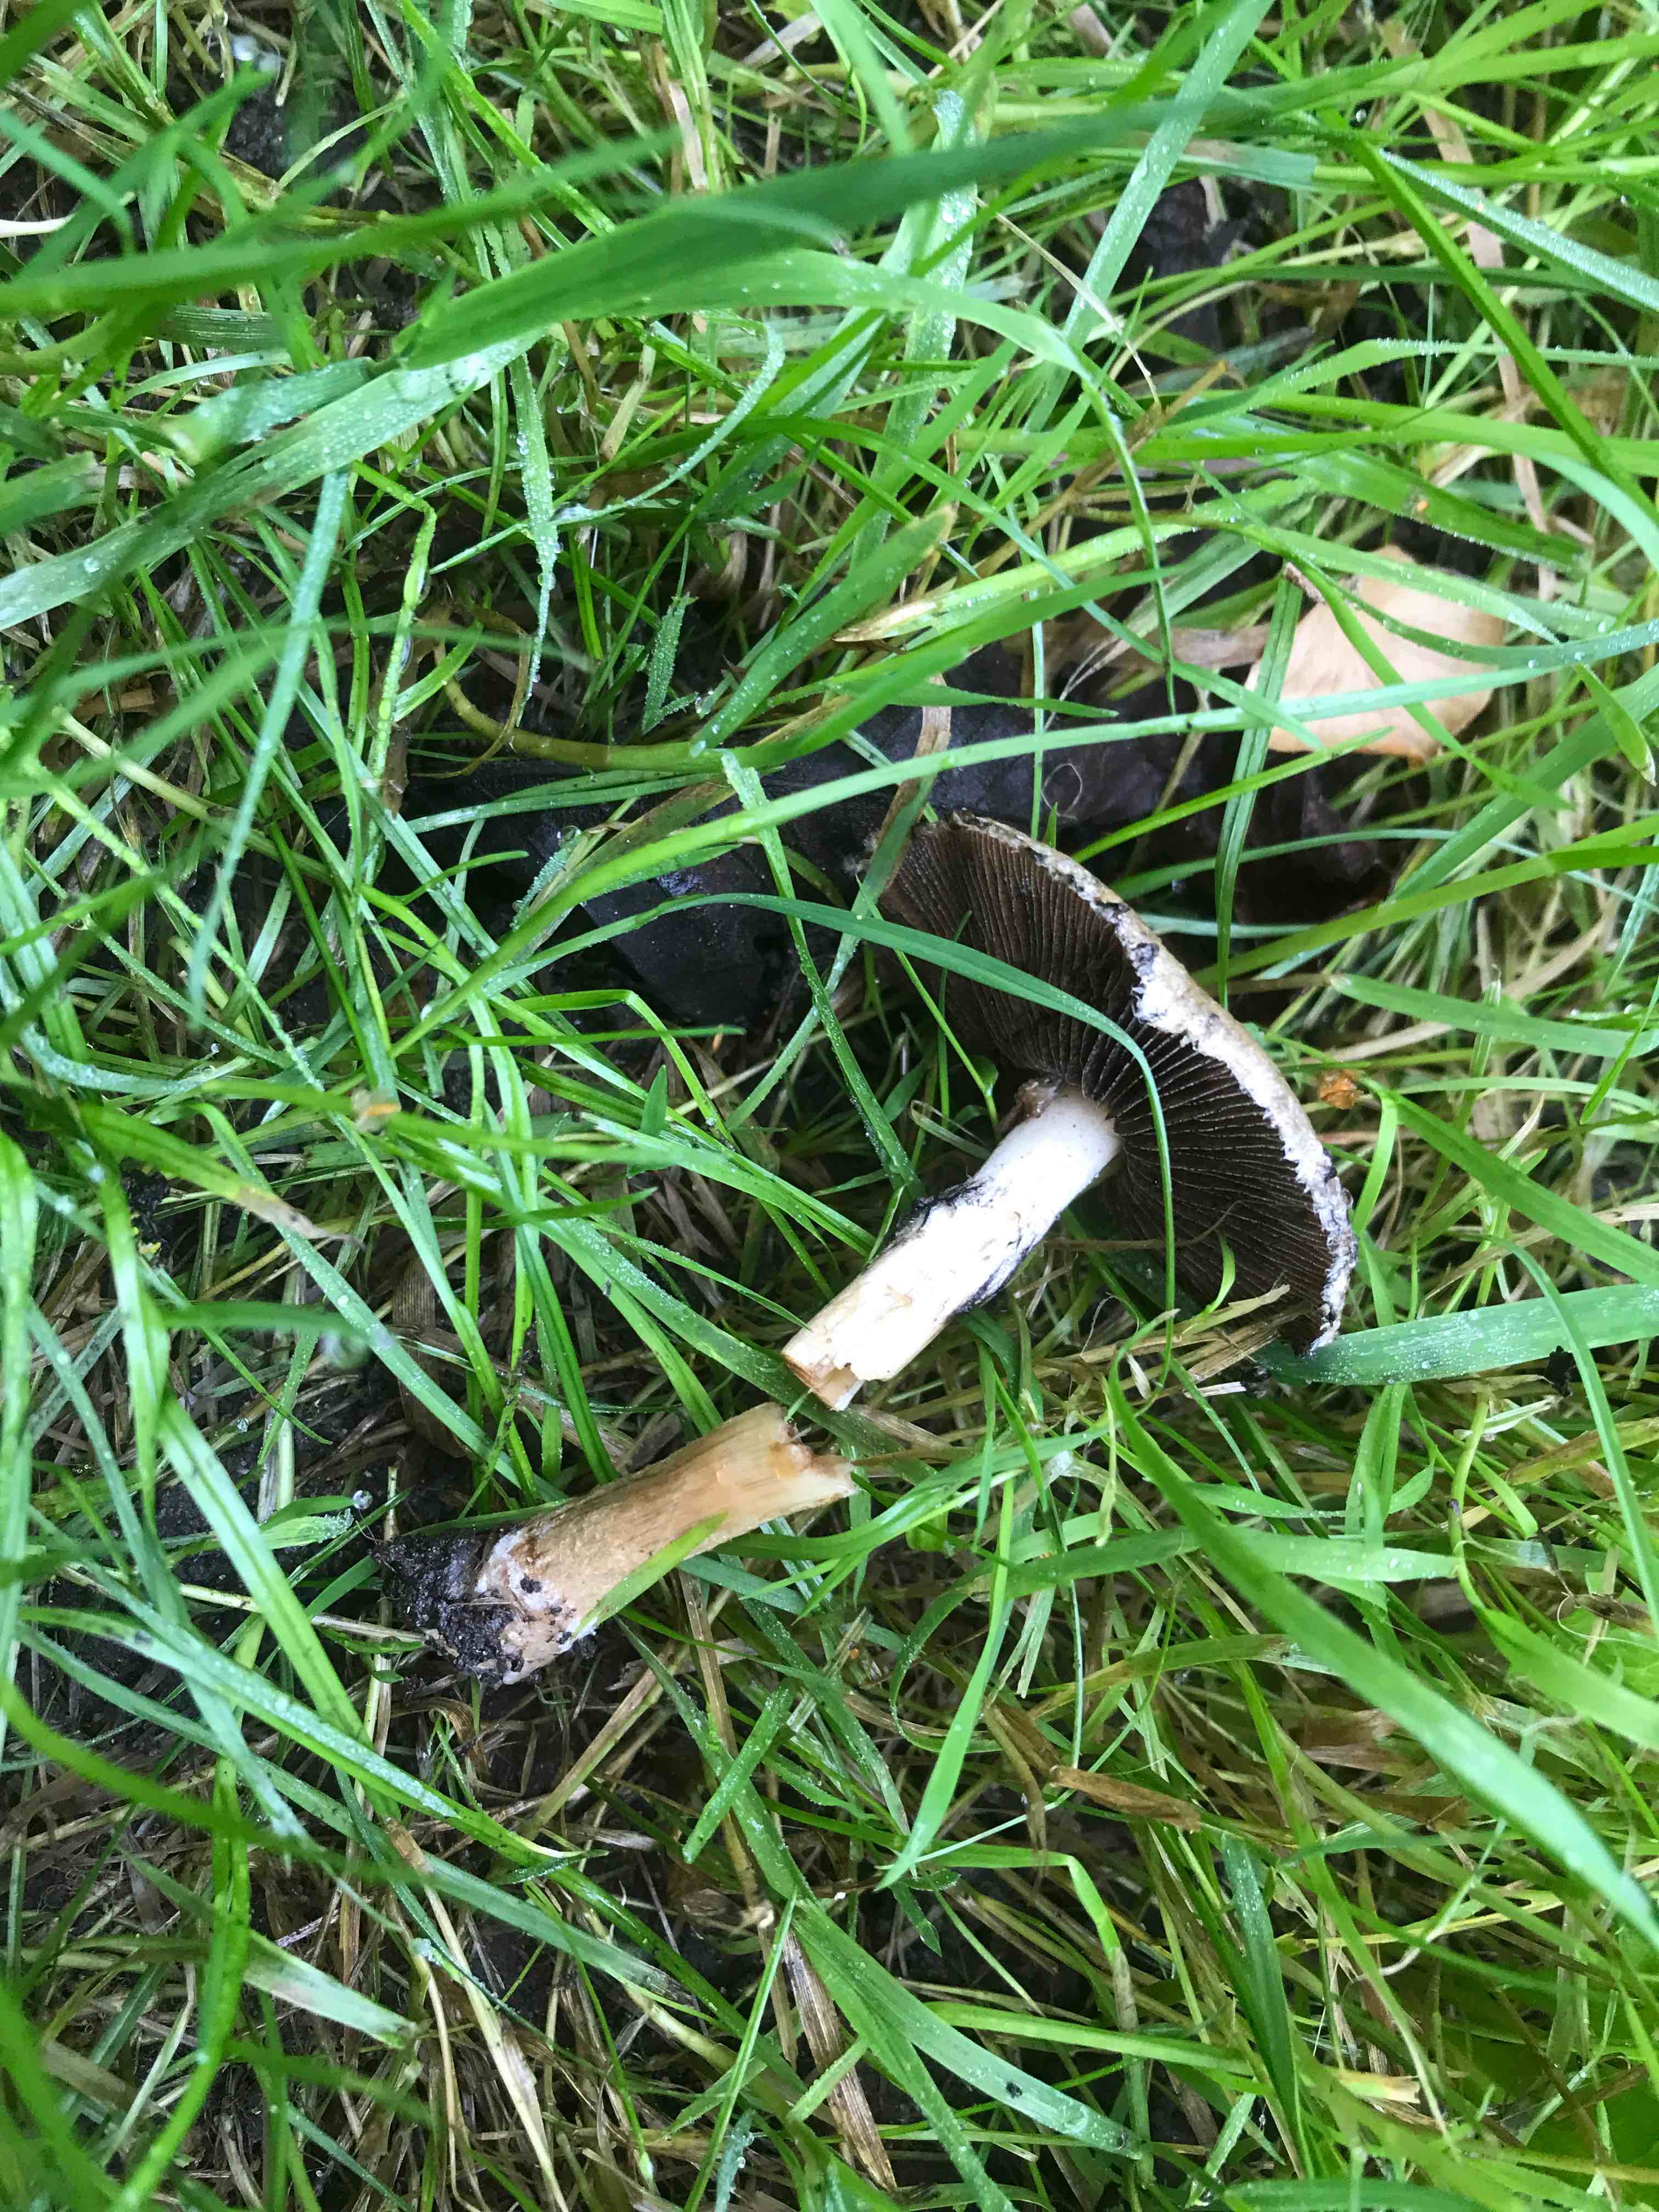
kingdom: Fungi
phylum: Basidiomycota
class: Agaricomycetes
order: Agaricales
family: Psathyrellaceae
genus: Lacrymaria
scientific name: Lacrymaria lacrymabunda
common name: grædende mørkhat
